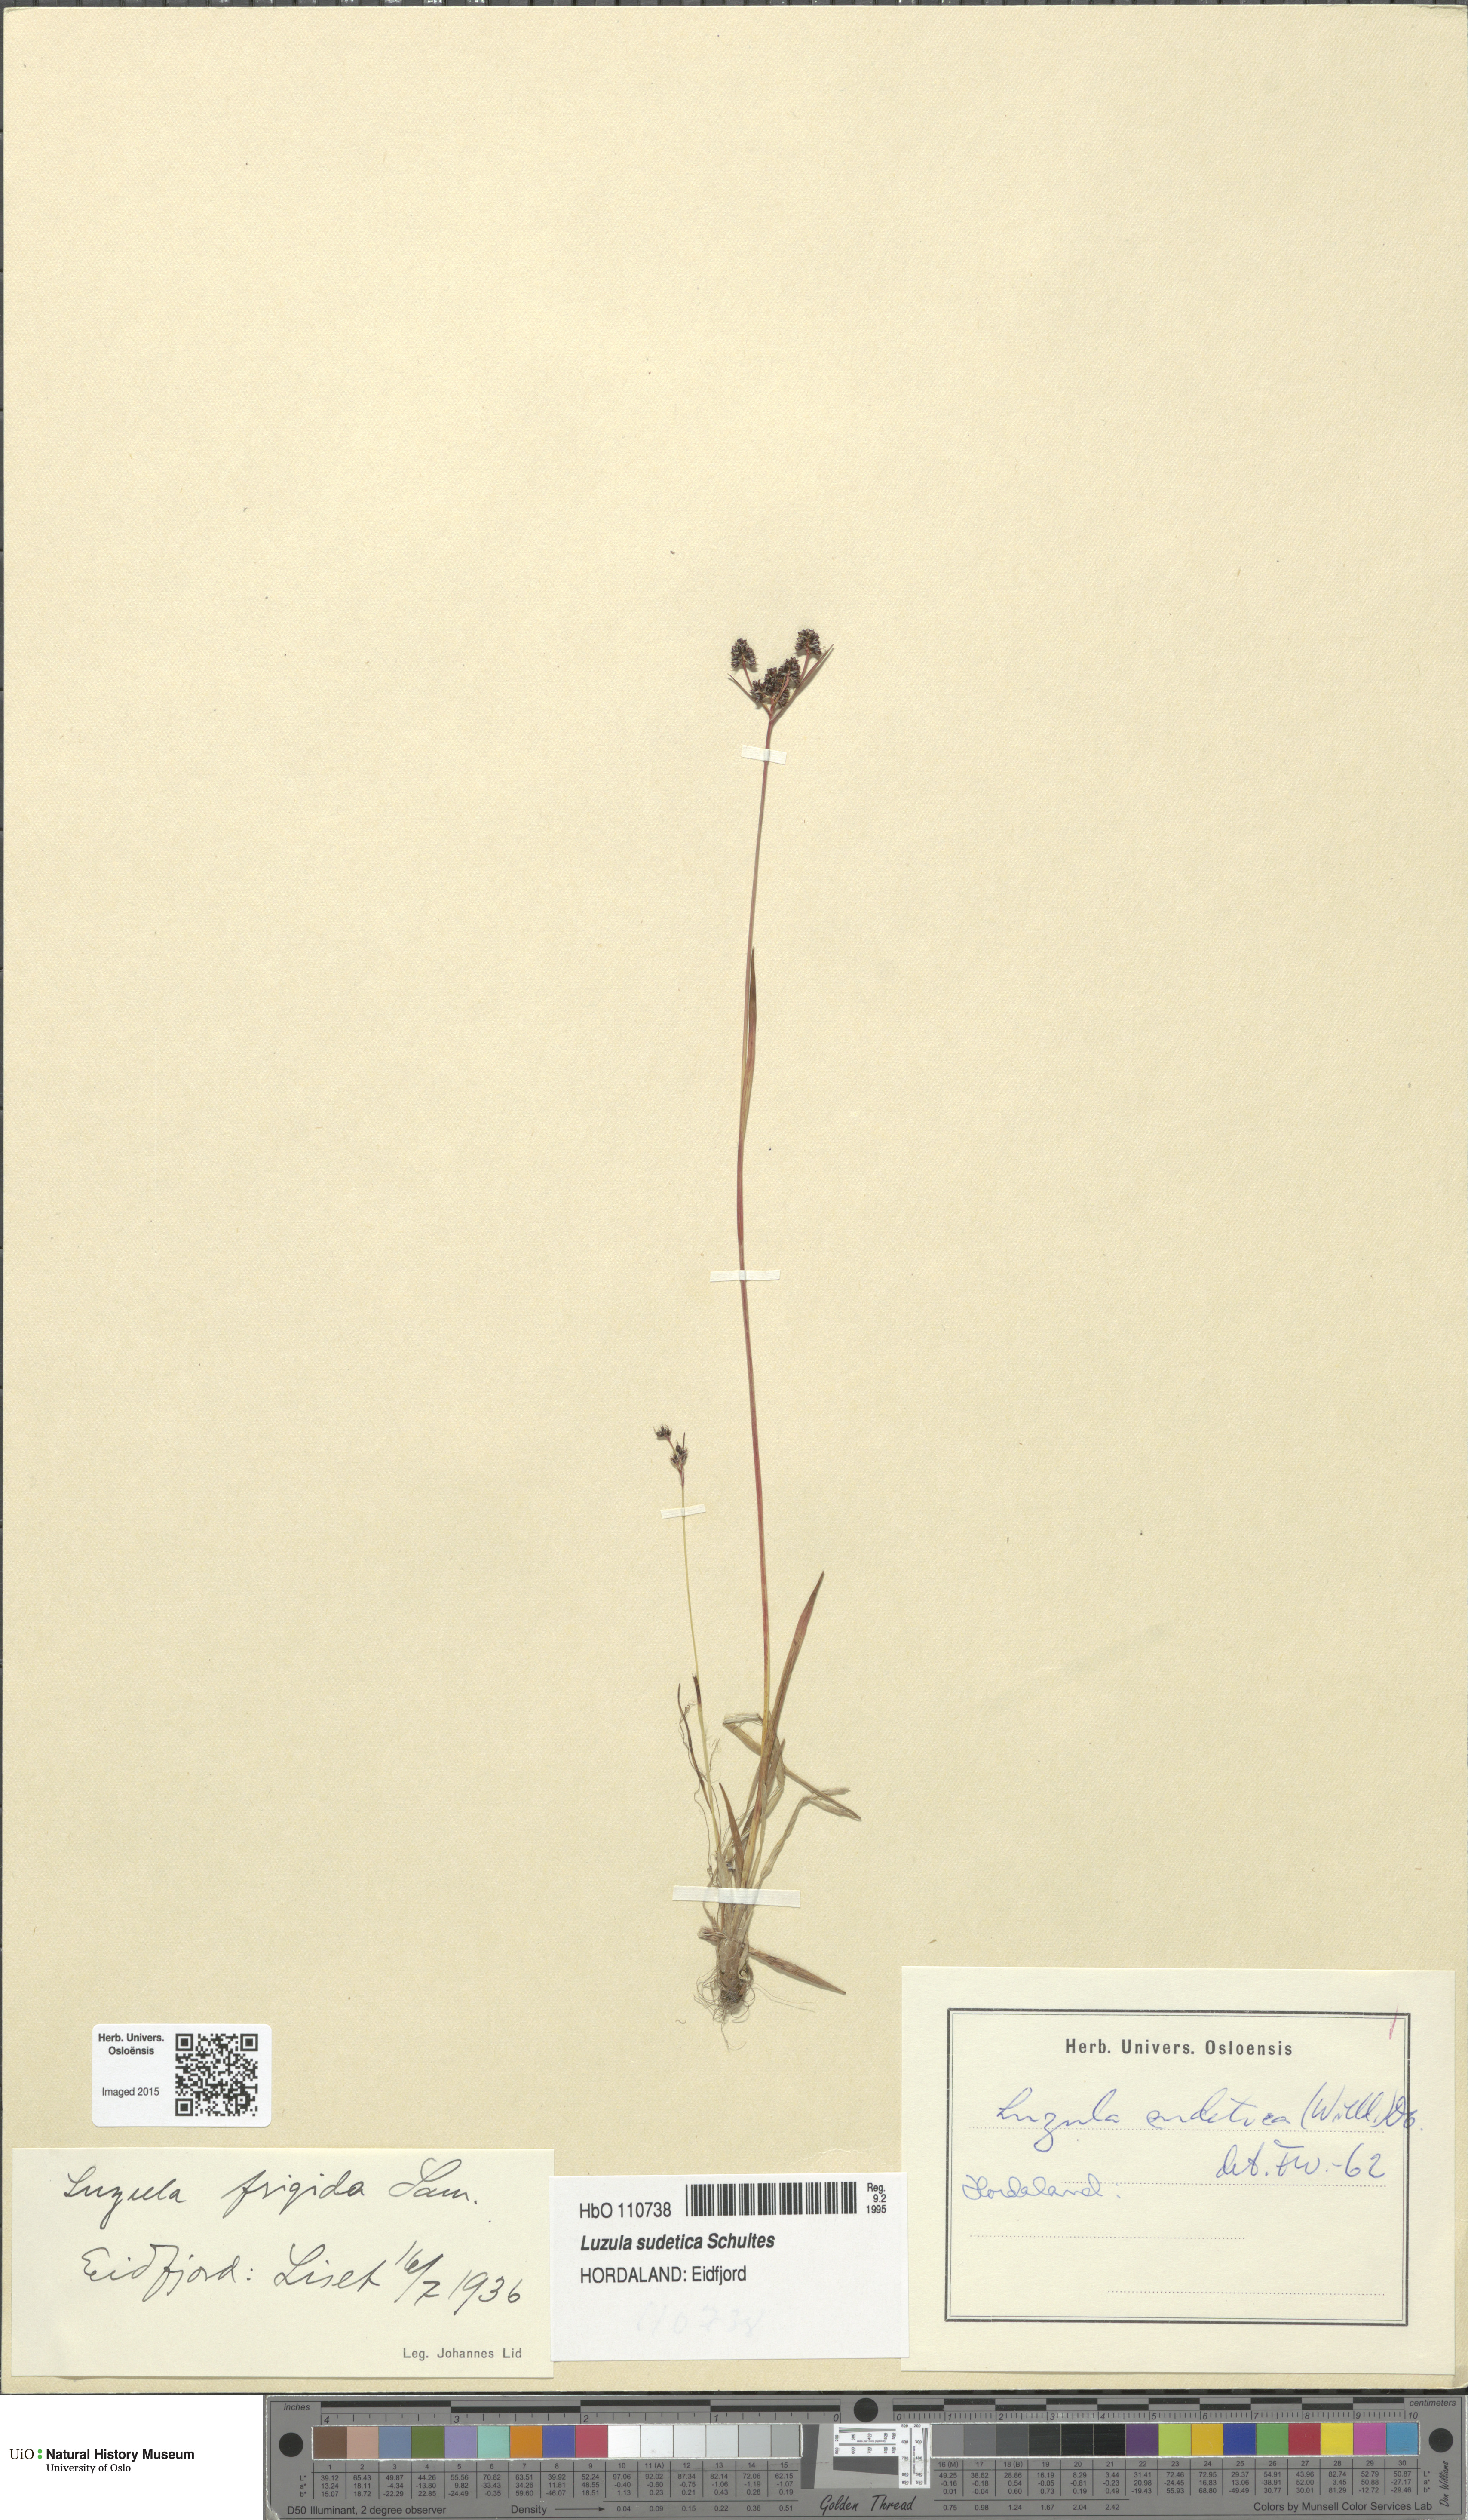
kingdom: Plantae
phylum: Tracheophyta
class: Liliopsida
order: Poales
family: Juncaceae
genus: Luzula
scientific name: Luzula sudetica
